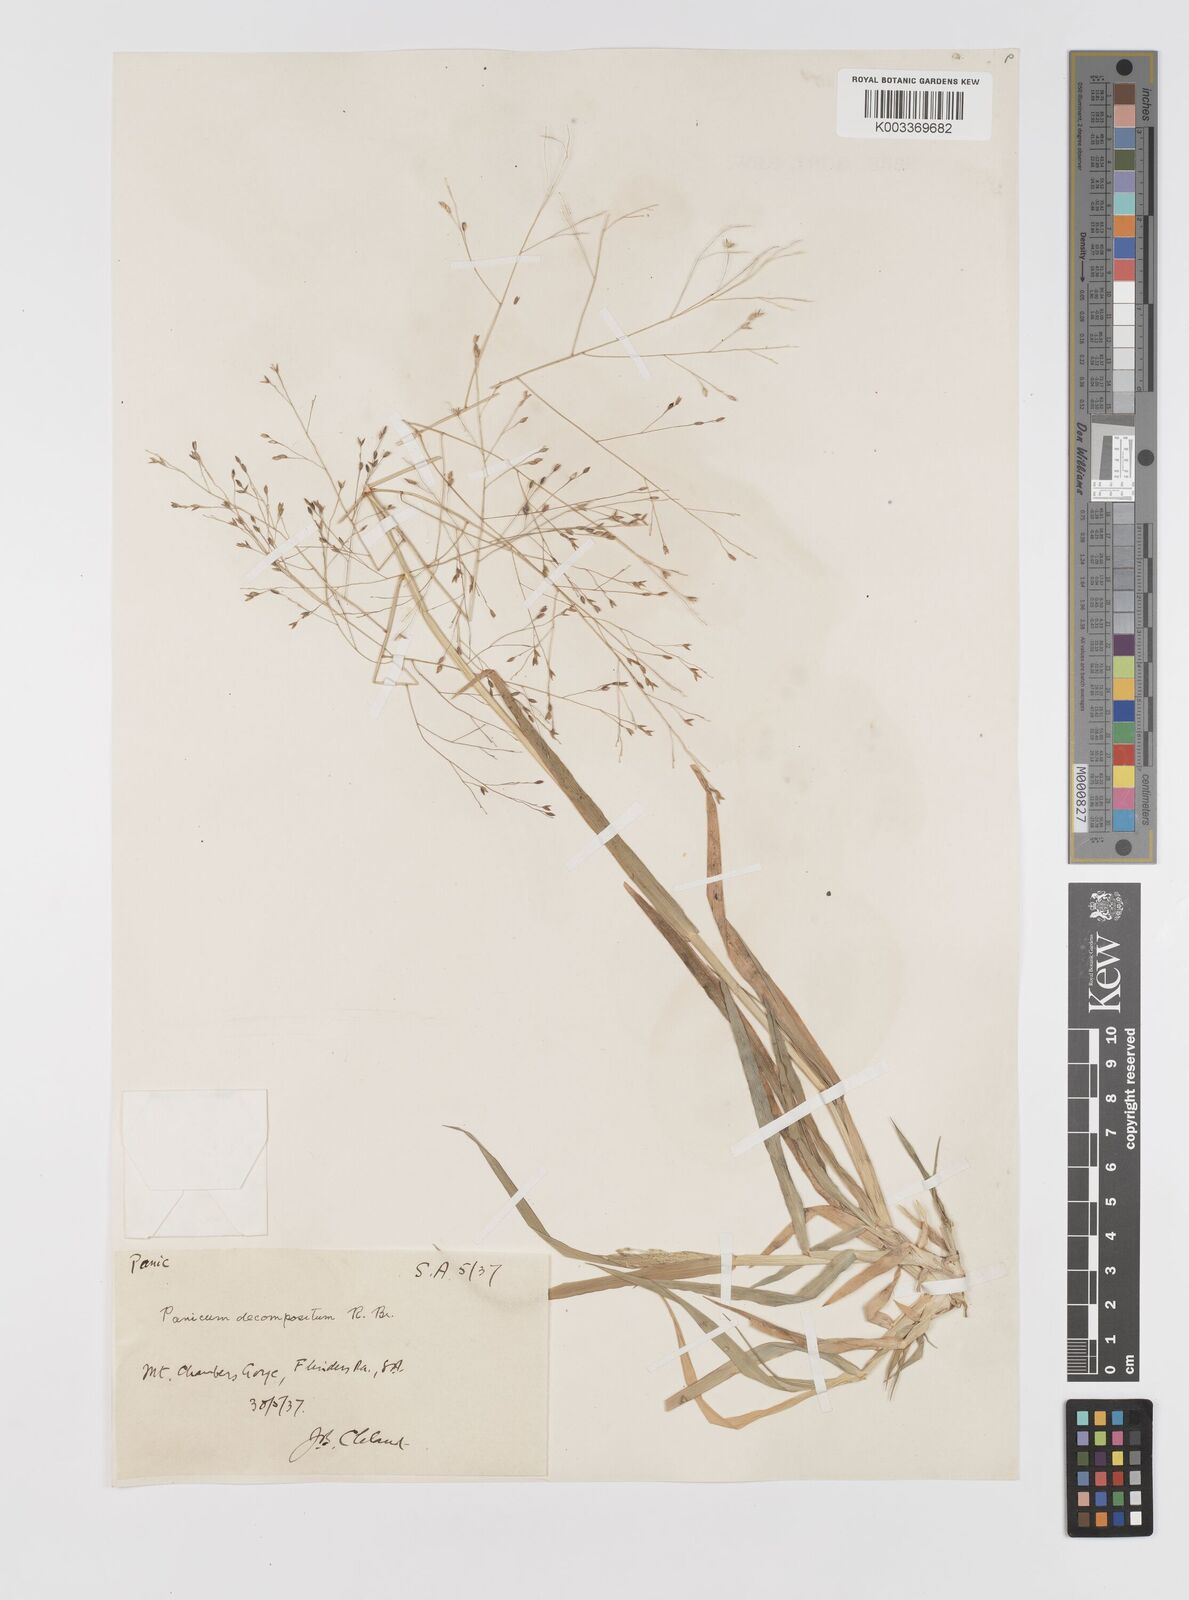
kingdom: Plantae
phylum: Tracheophyta
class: Liliopsida
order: Poales
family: Poaceae
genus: Panicum
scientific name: Panicum decompositum
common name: Australian millet
